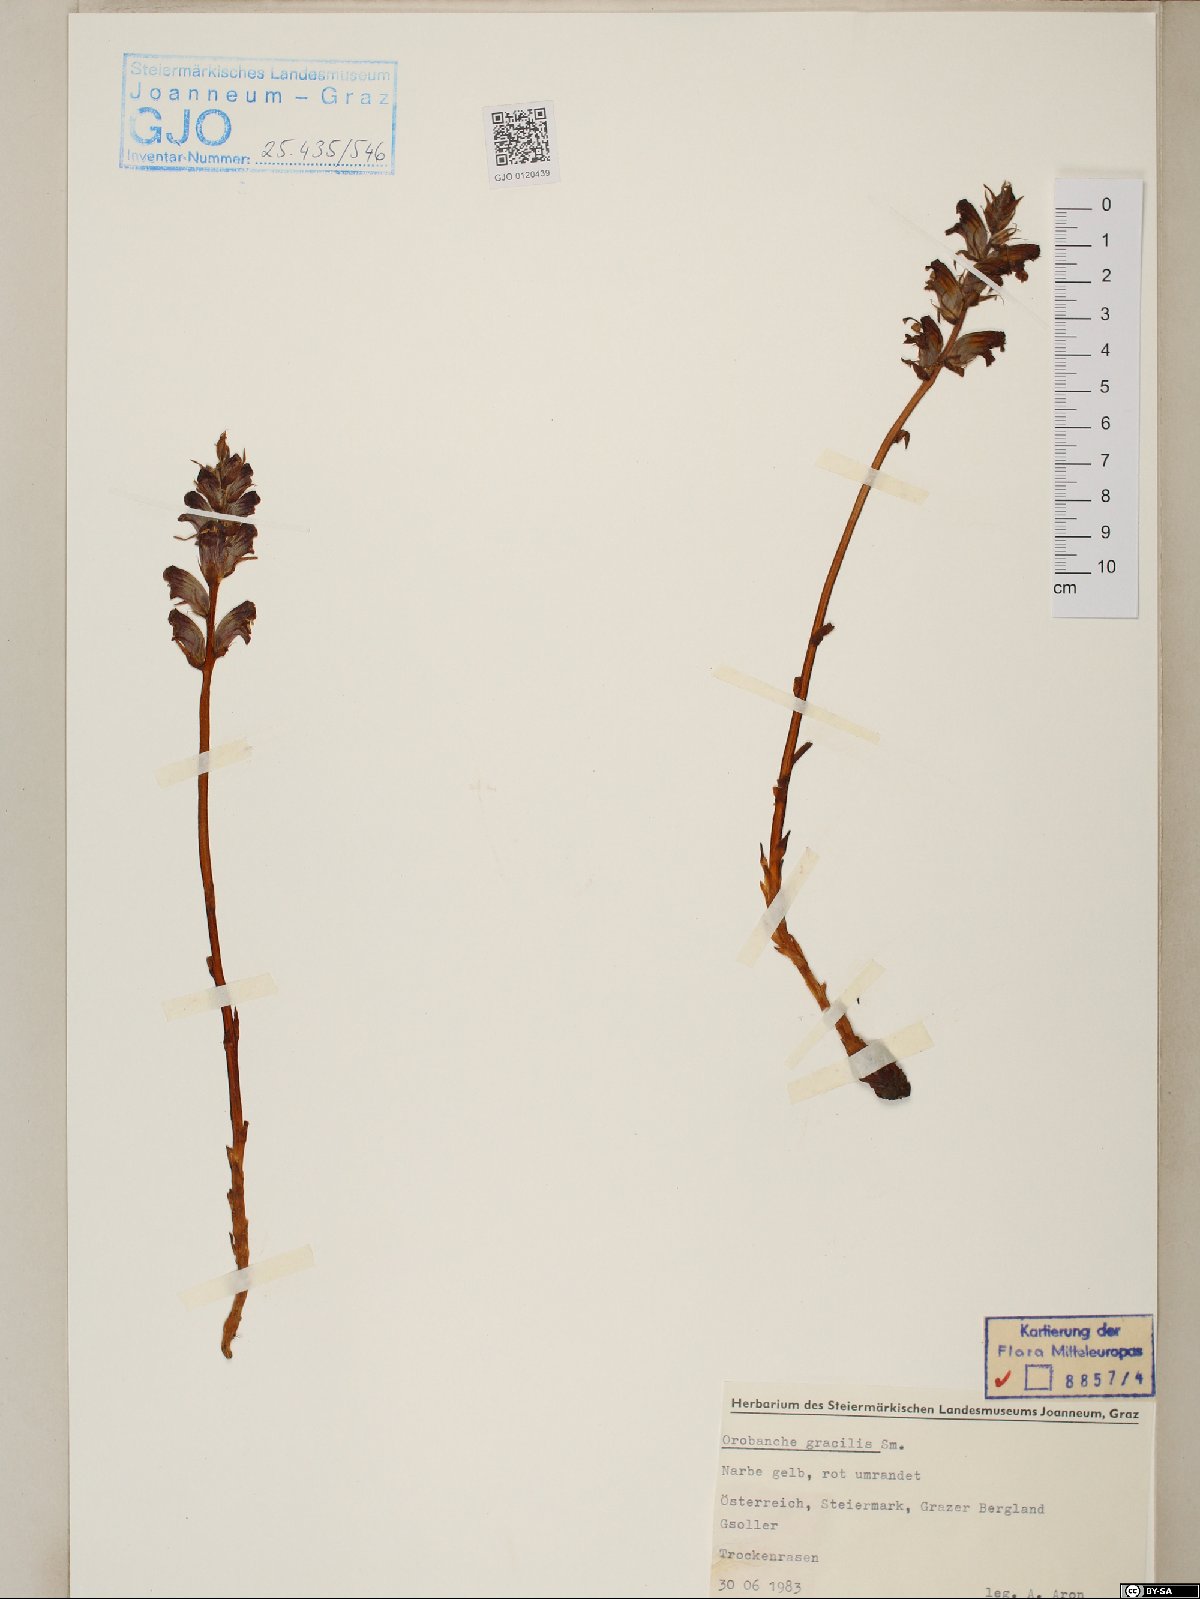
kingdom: Plantae
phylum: Tracheophyta
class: Magnoliopsida
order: Lamiales
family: Orobanchaceae
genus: Orobanche
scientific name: Orobanche gracilis
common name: Slender broomrape
